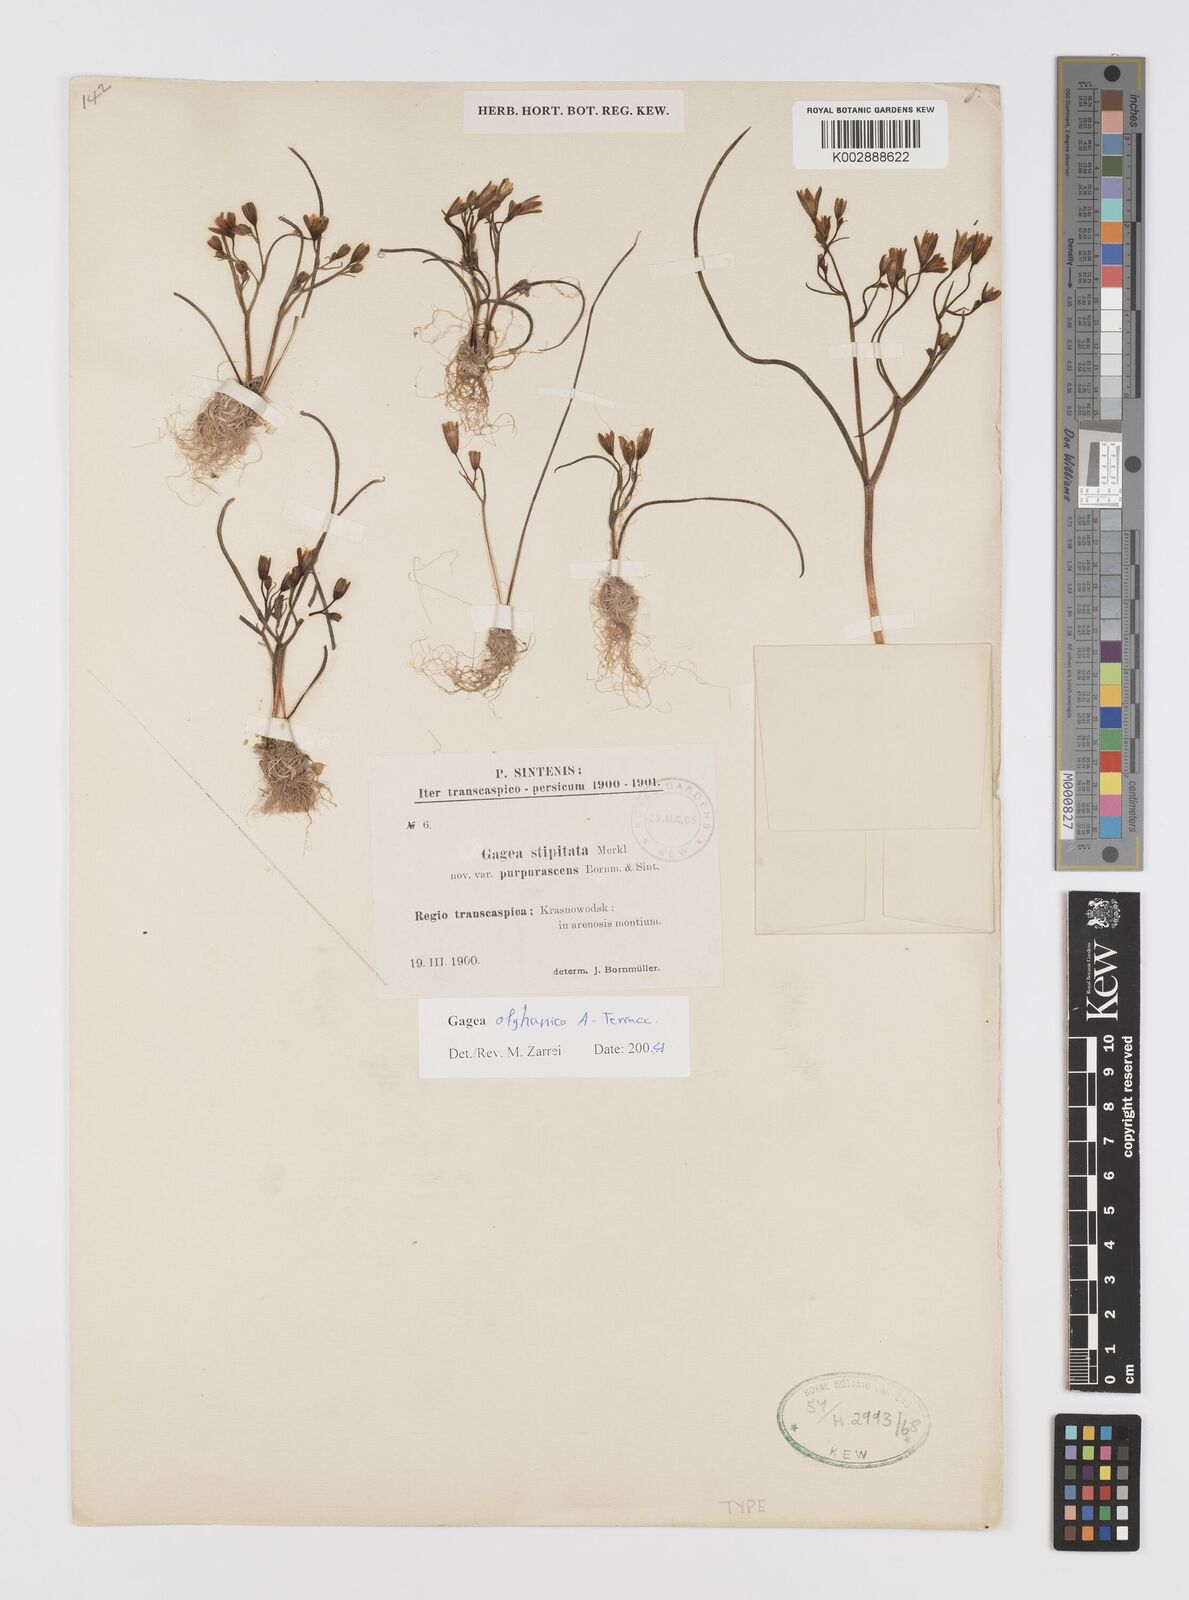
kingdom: Plantae
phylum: Tracheophyta
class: Liliopsida
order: Liliales
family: Liliaceae
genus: Gagea
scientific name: Gagea afghanica
